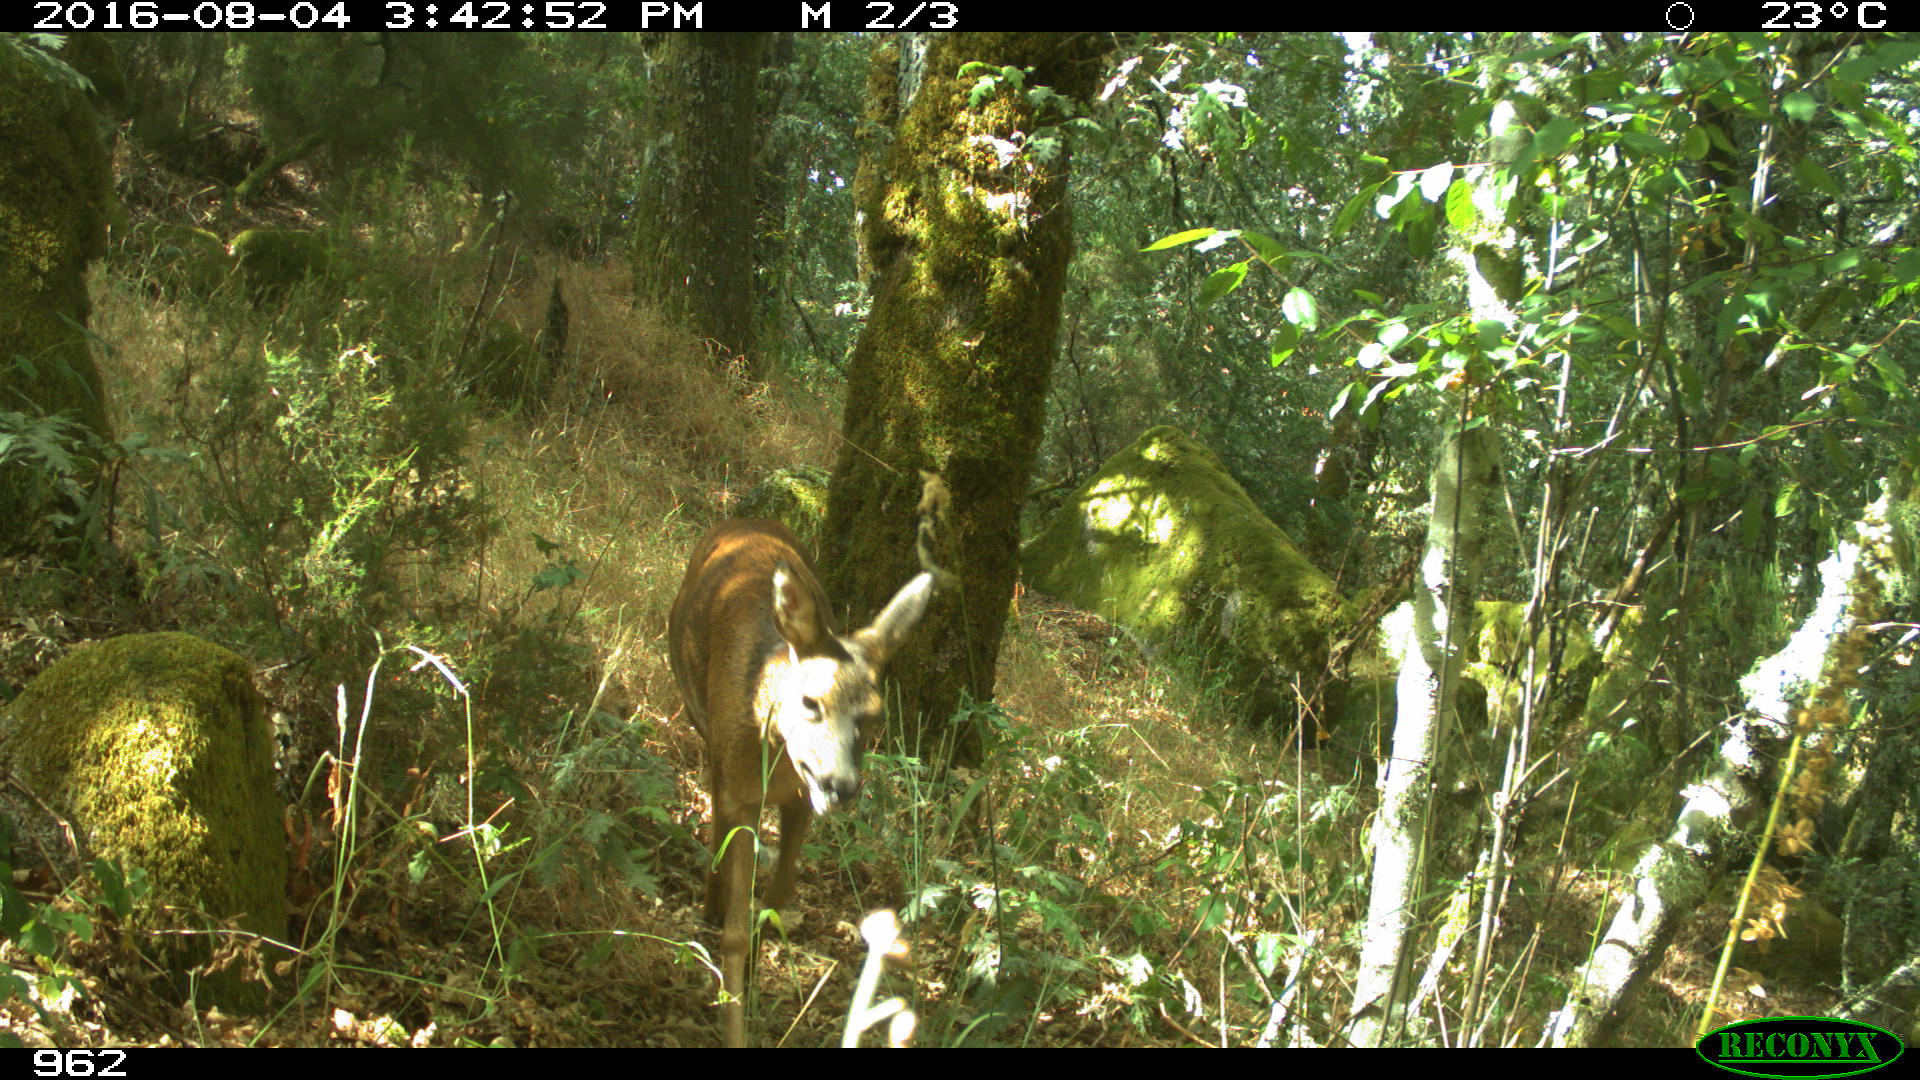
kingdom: Animalia
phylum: Chordata
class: Mammalia
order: Artiodactyla
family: Cervidae
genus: Capreolus
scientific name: Capreolus capreolus
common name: Western roe deer
